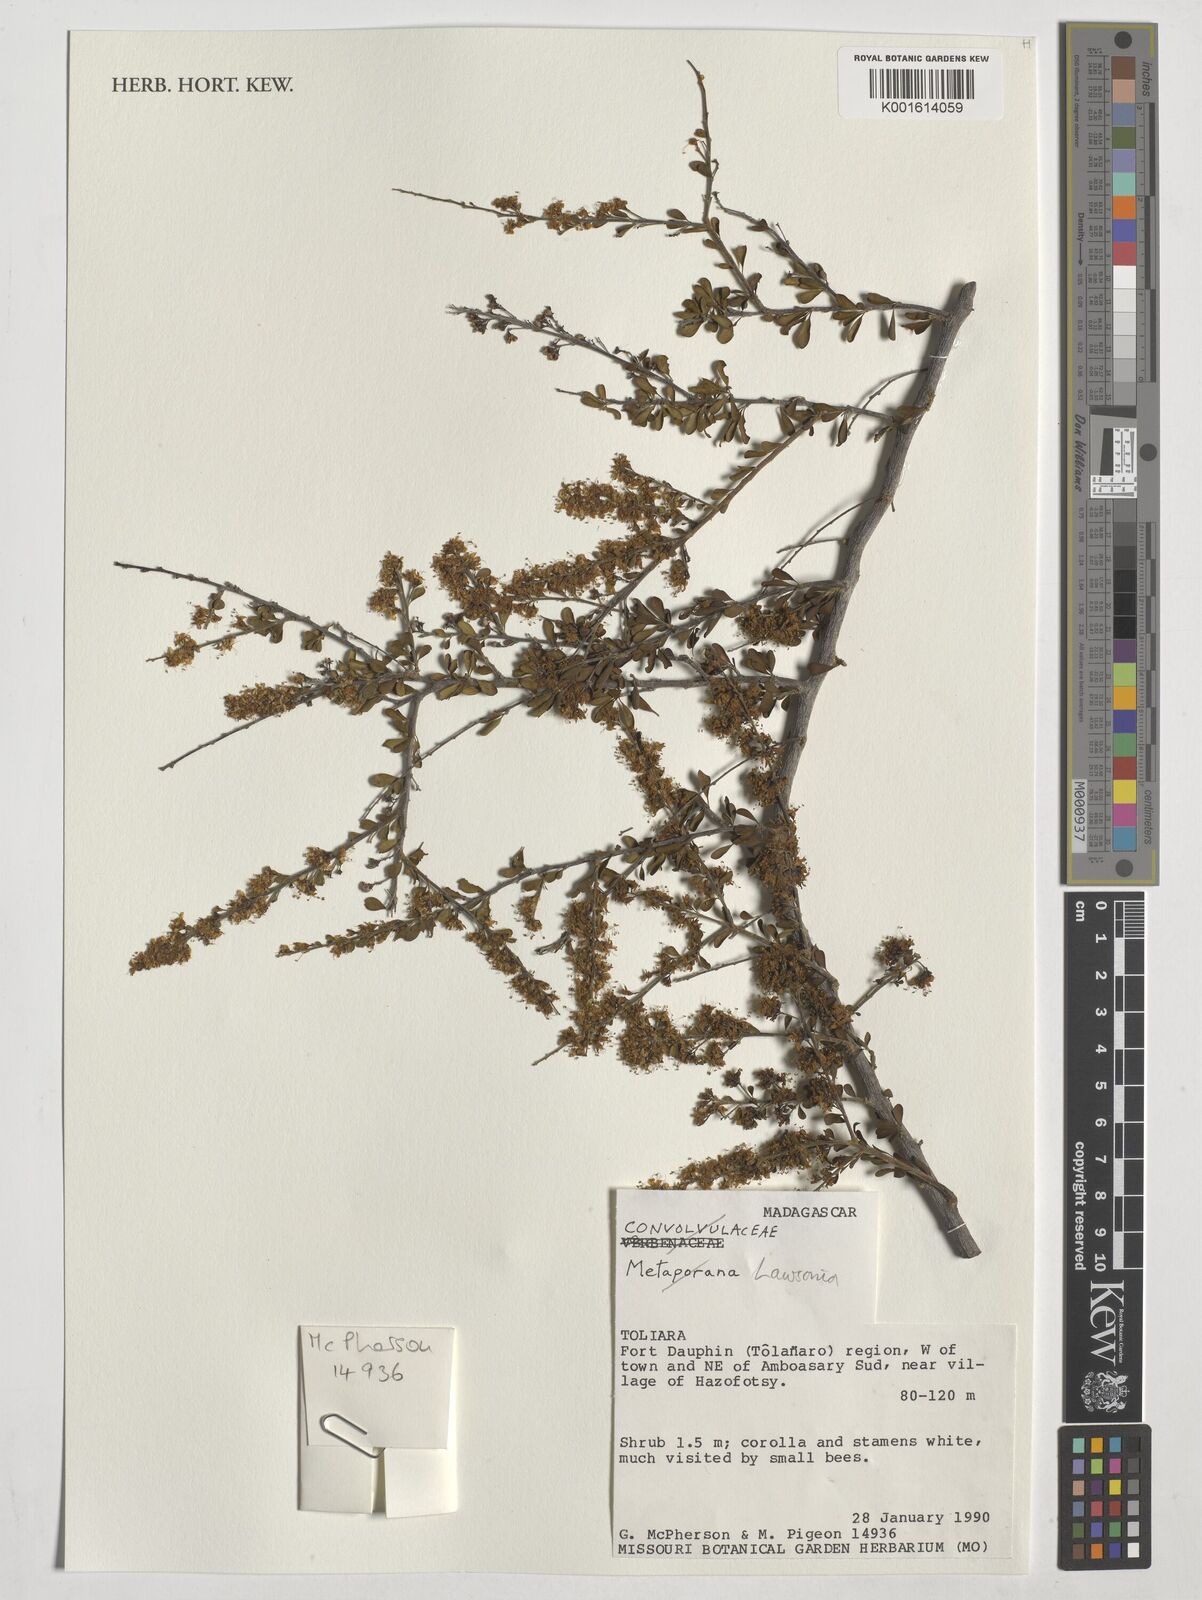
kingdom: Plantae
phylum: Tracheophyta
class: Magnoliopsida
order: Myrtales
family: Lythraceae
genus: Lawsonia
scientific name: Lawsonia
